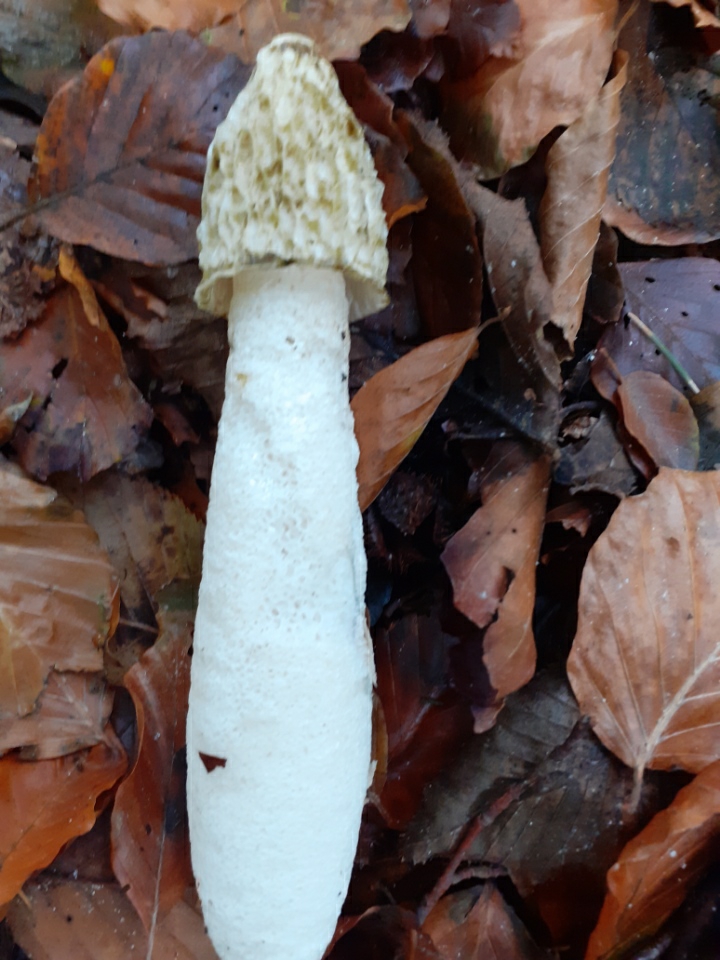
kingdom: Fungi
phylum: Basidiomycota
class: Agaricomycetes
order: Phallales
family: Phallaceae
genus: Phallus
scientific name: Phallus impudicus
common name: almindelig stinksvamp
